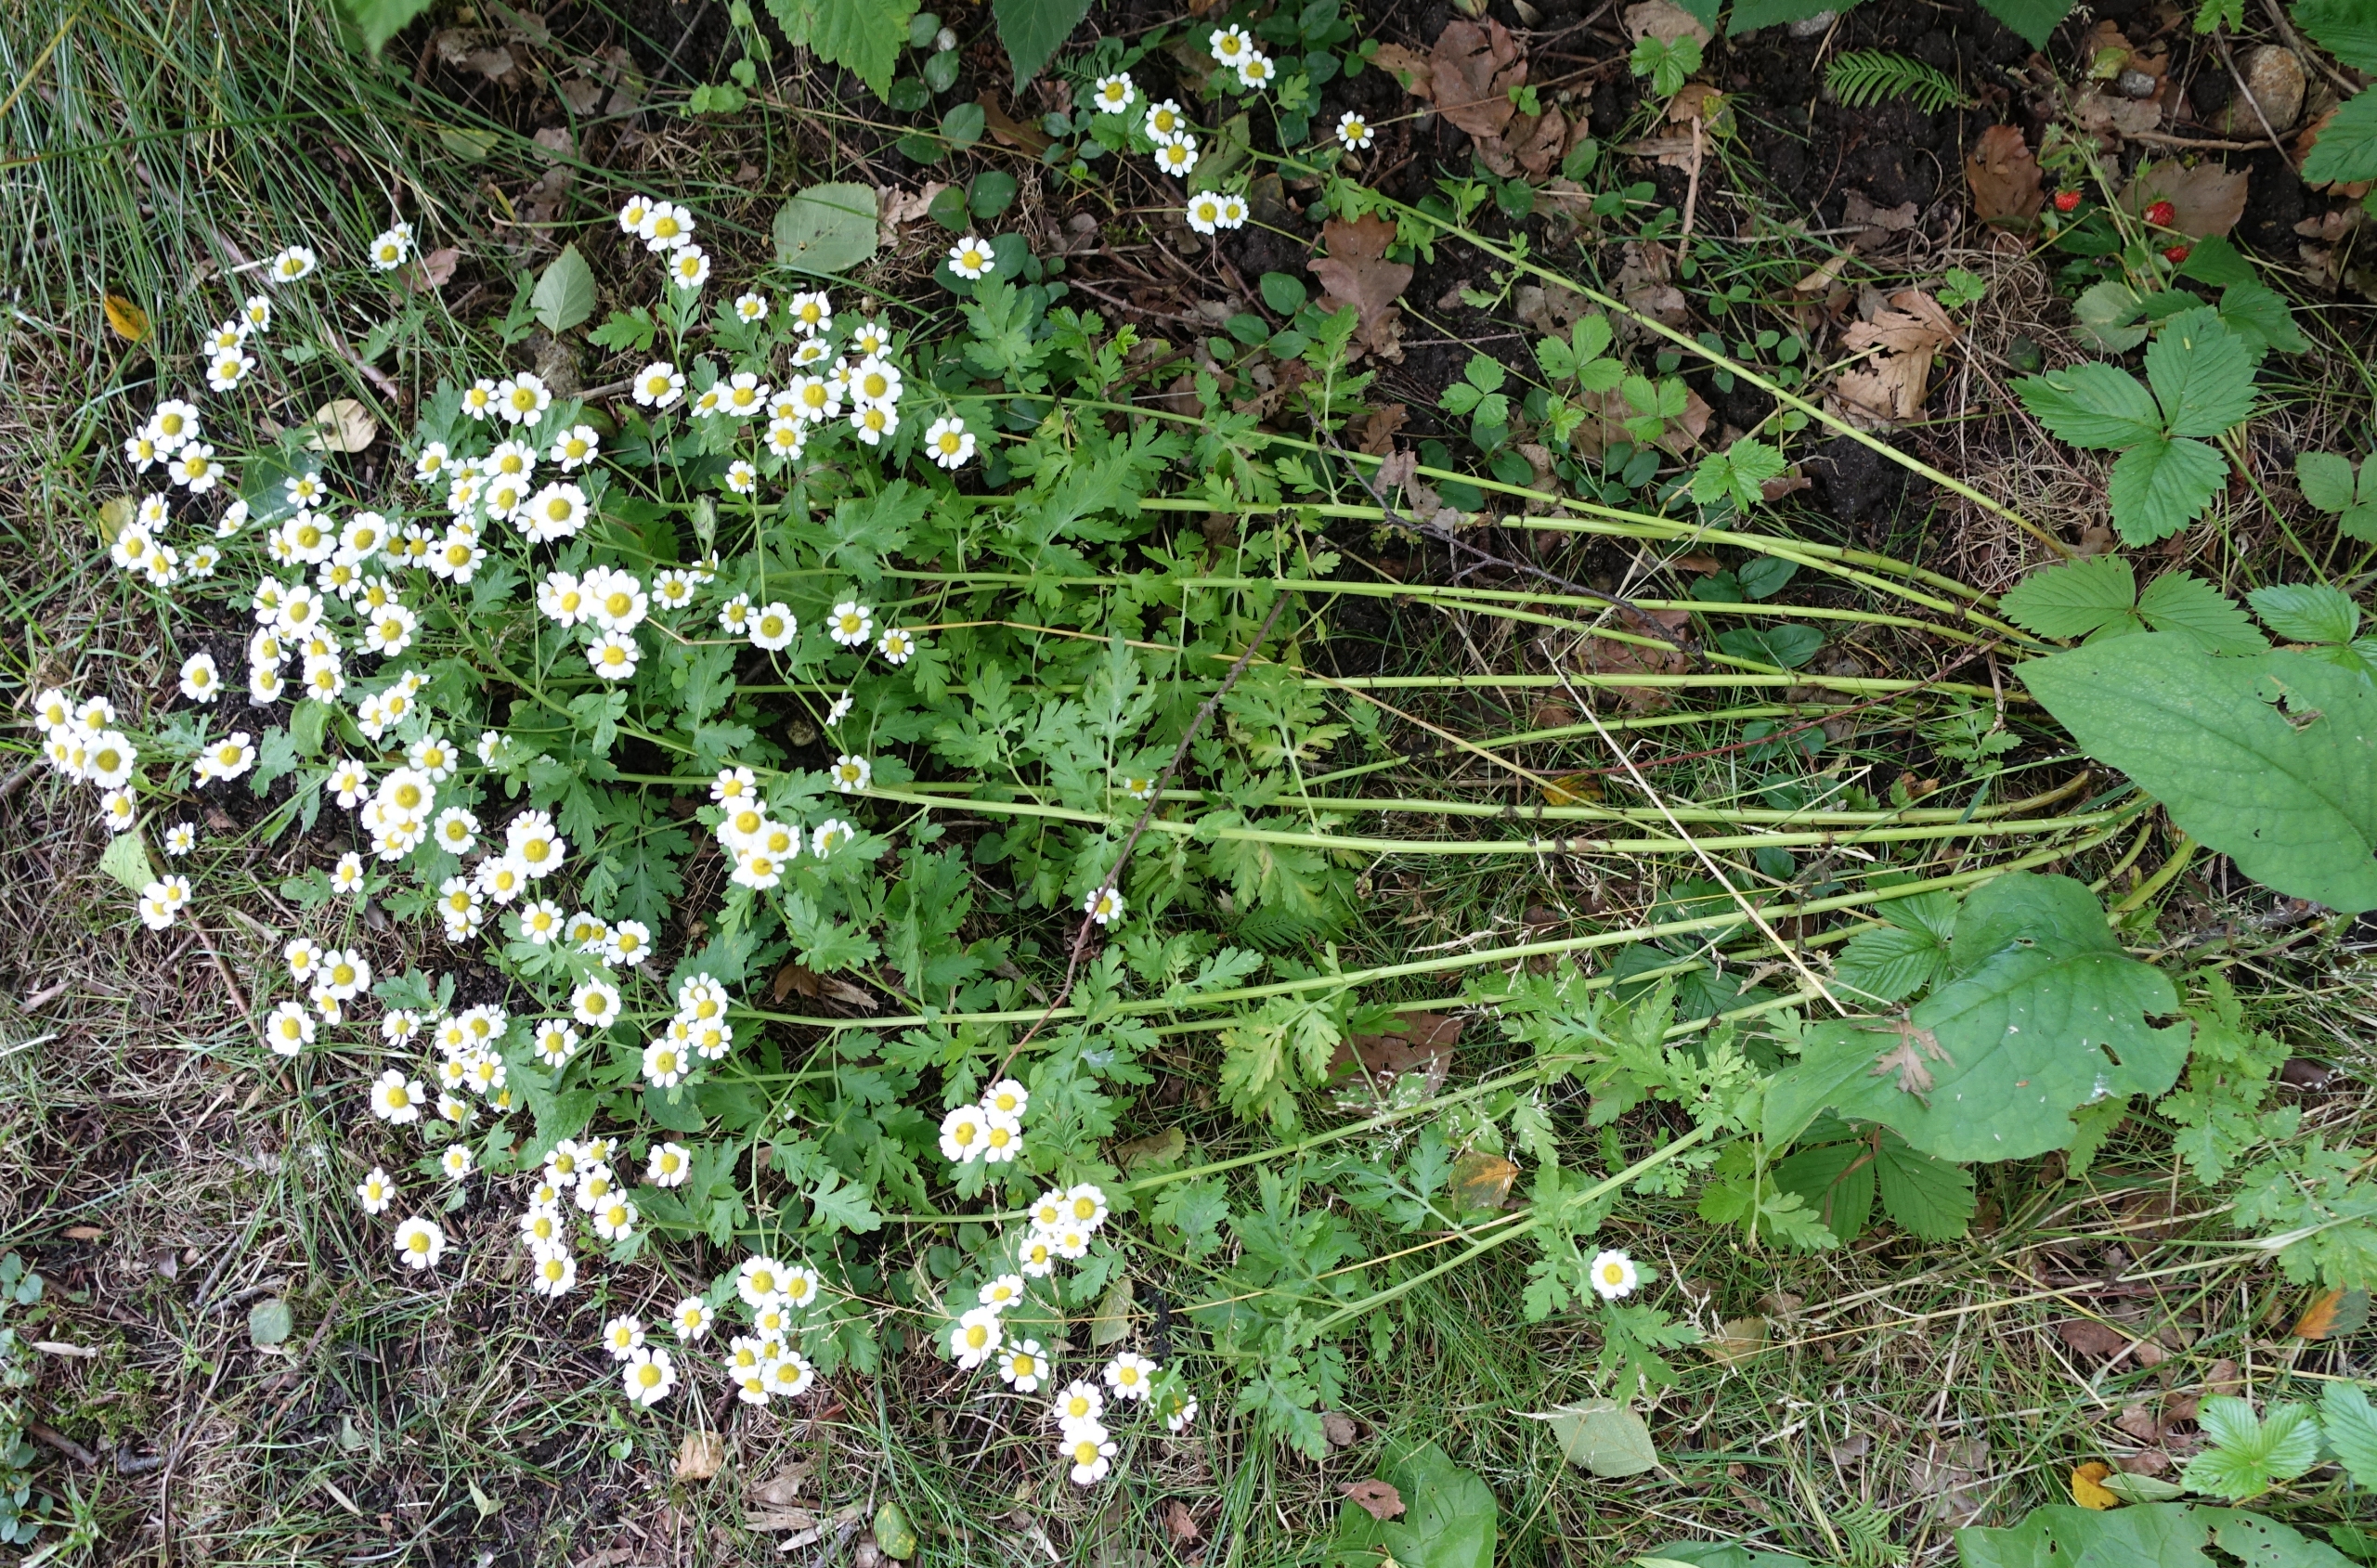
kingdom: Plantae
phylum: Tracheophyta
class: Magnoliopsida
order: Asterales
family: Asteraceae
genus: Tanacetum
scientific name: Tanacetum parthenium
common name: Matrem
